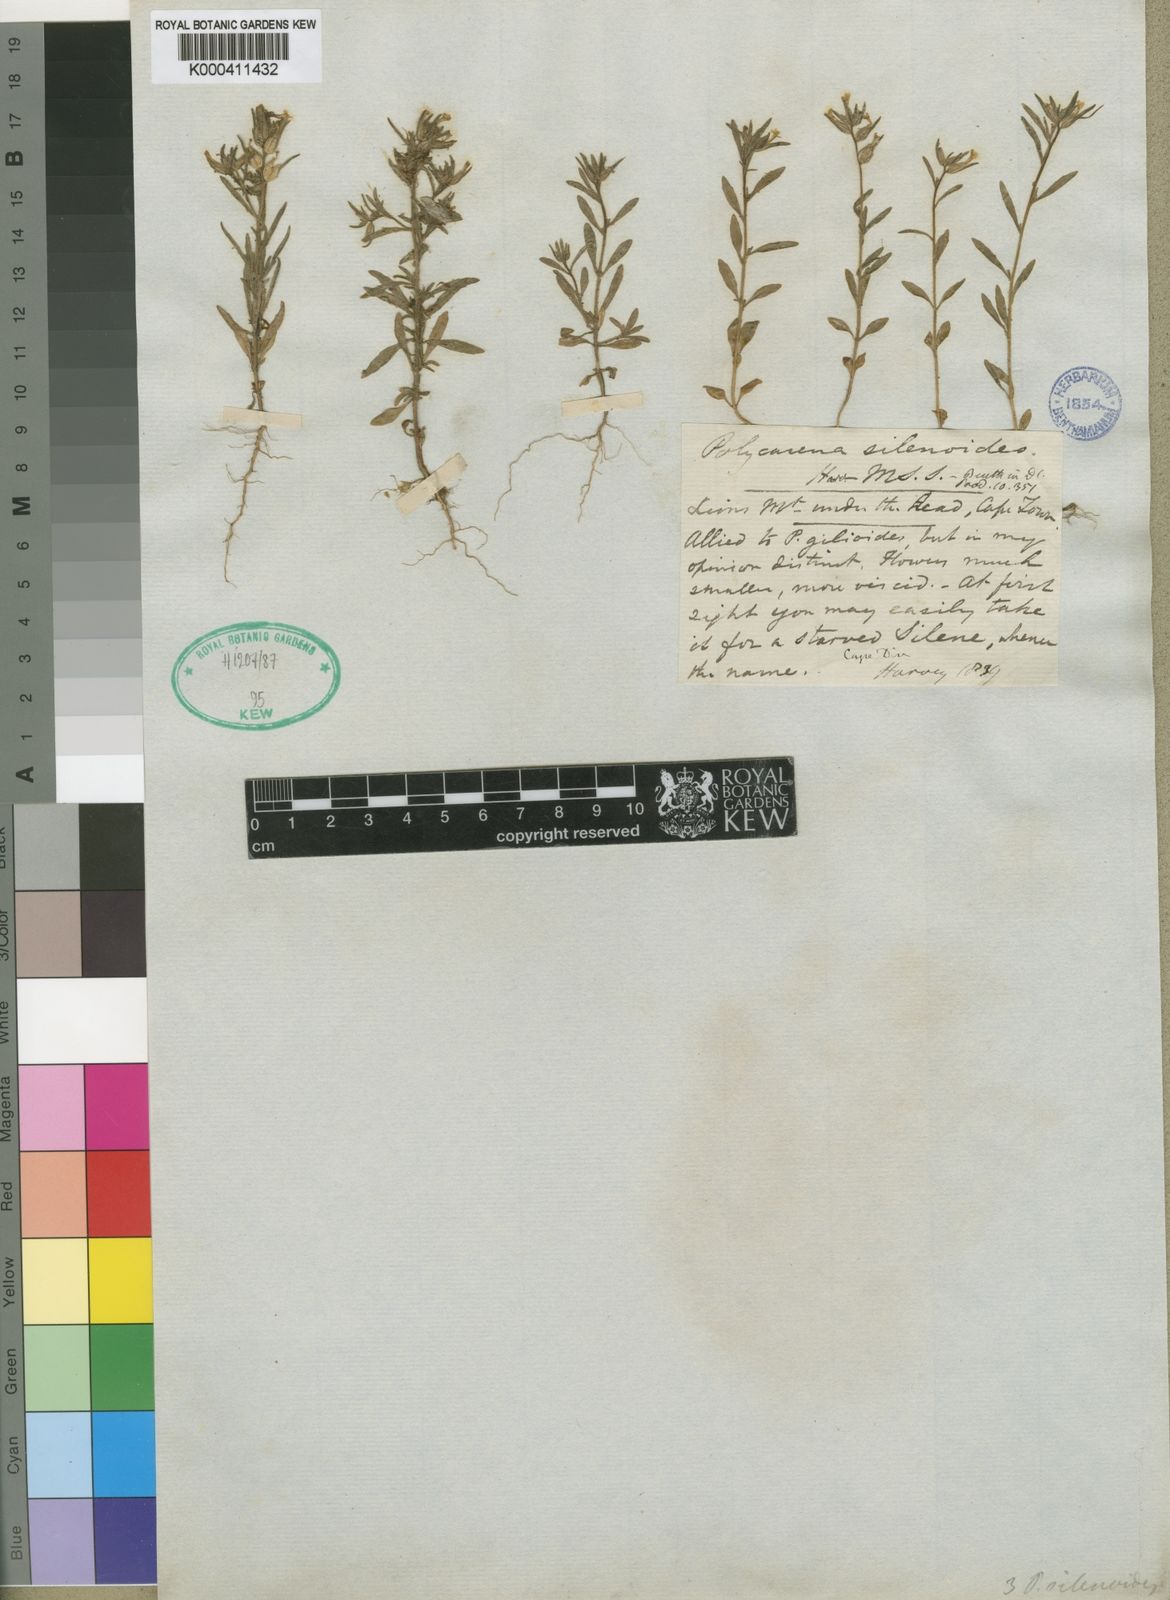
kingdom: Plantae
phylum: Tracheophyta
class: Magnoliopsida
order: Lamiales
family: Scrophulariaceae
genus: Polycarena
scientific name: Polycarena silenoides
